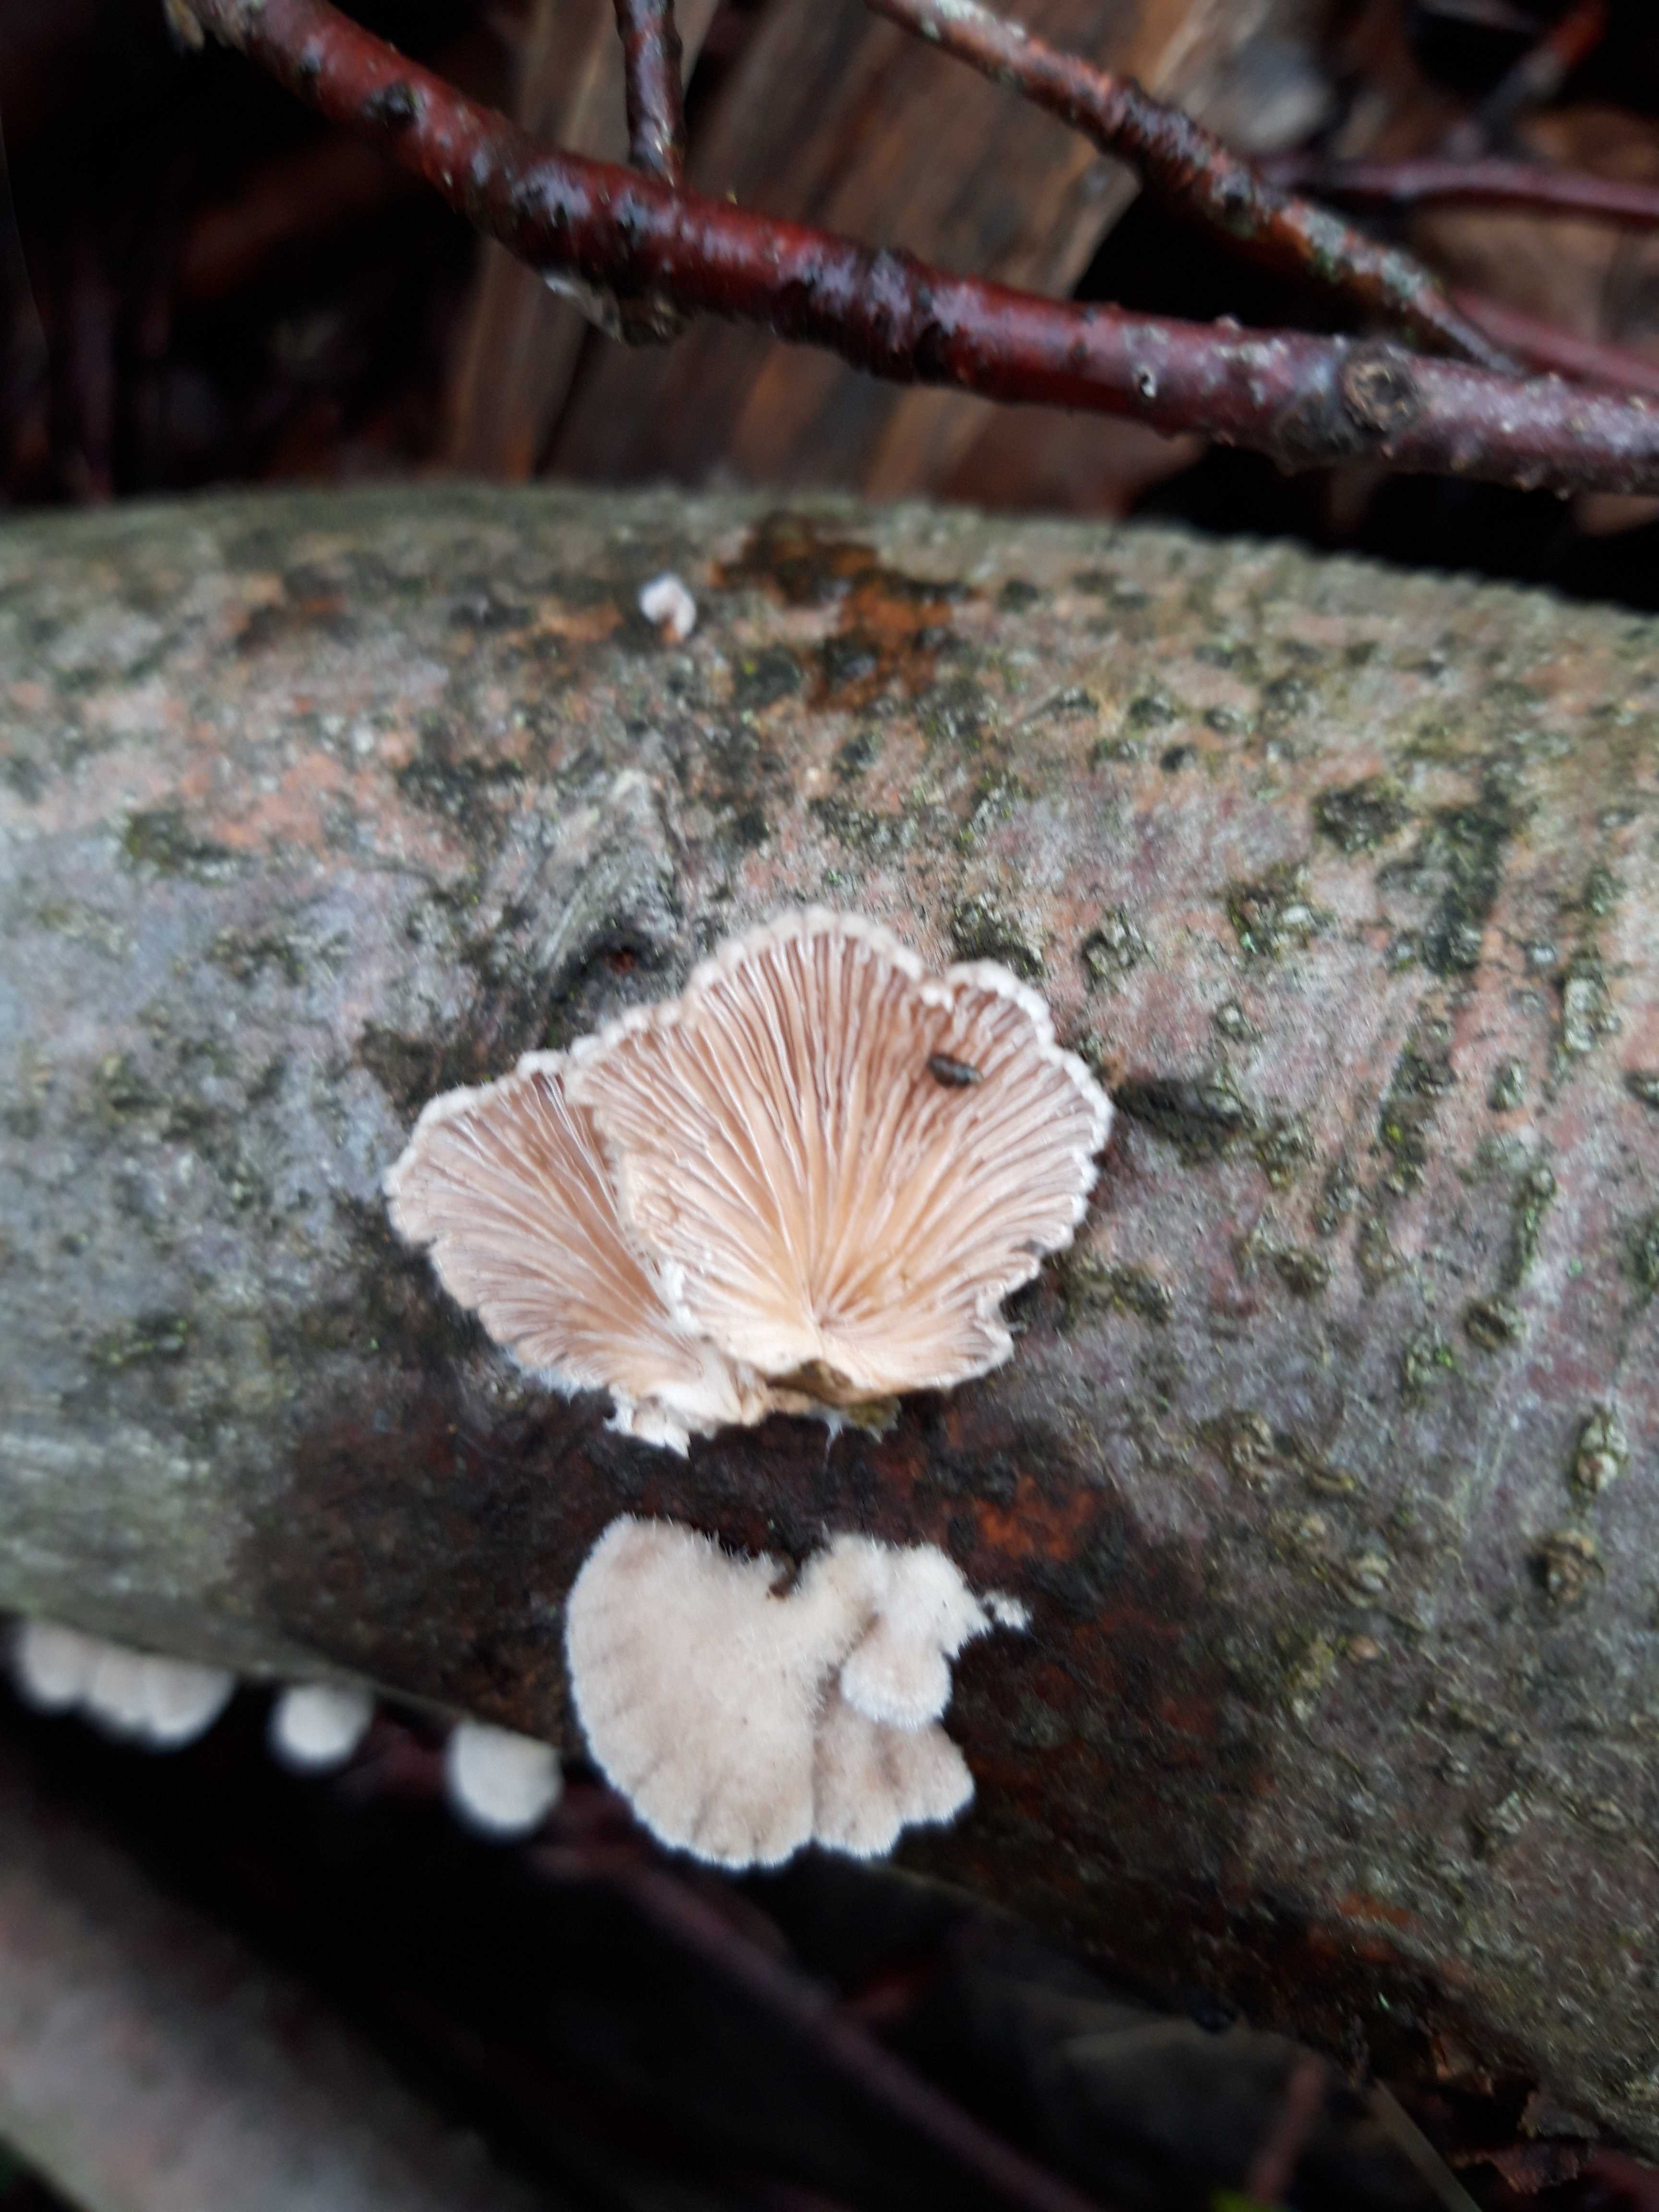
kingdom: Fungi
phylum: Basidiomycota
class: Agaricomycetes
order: Agaricales
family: Schizophyllaceae
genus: Schizophyllum
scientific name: Schizophyllum commune
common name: kløvblad
